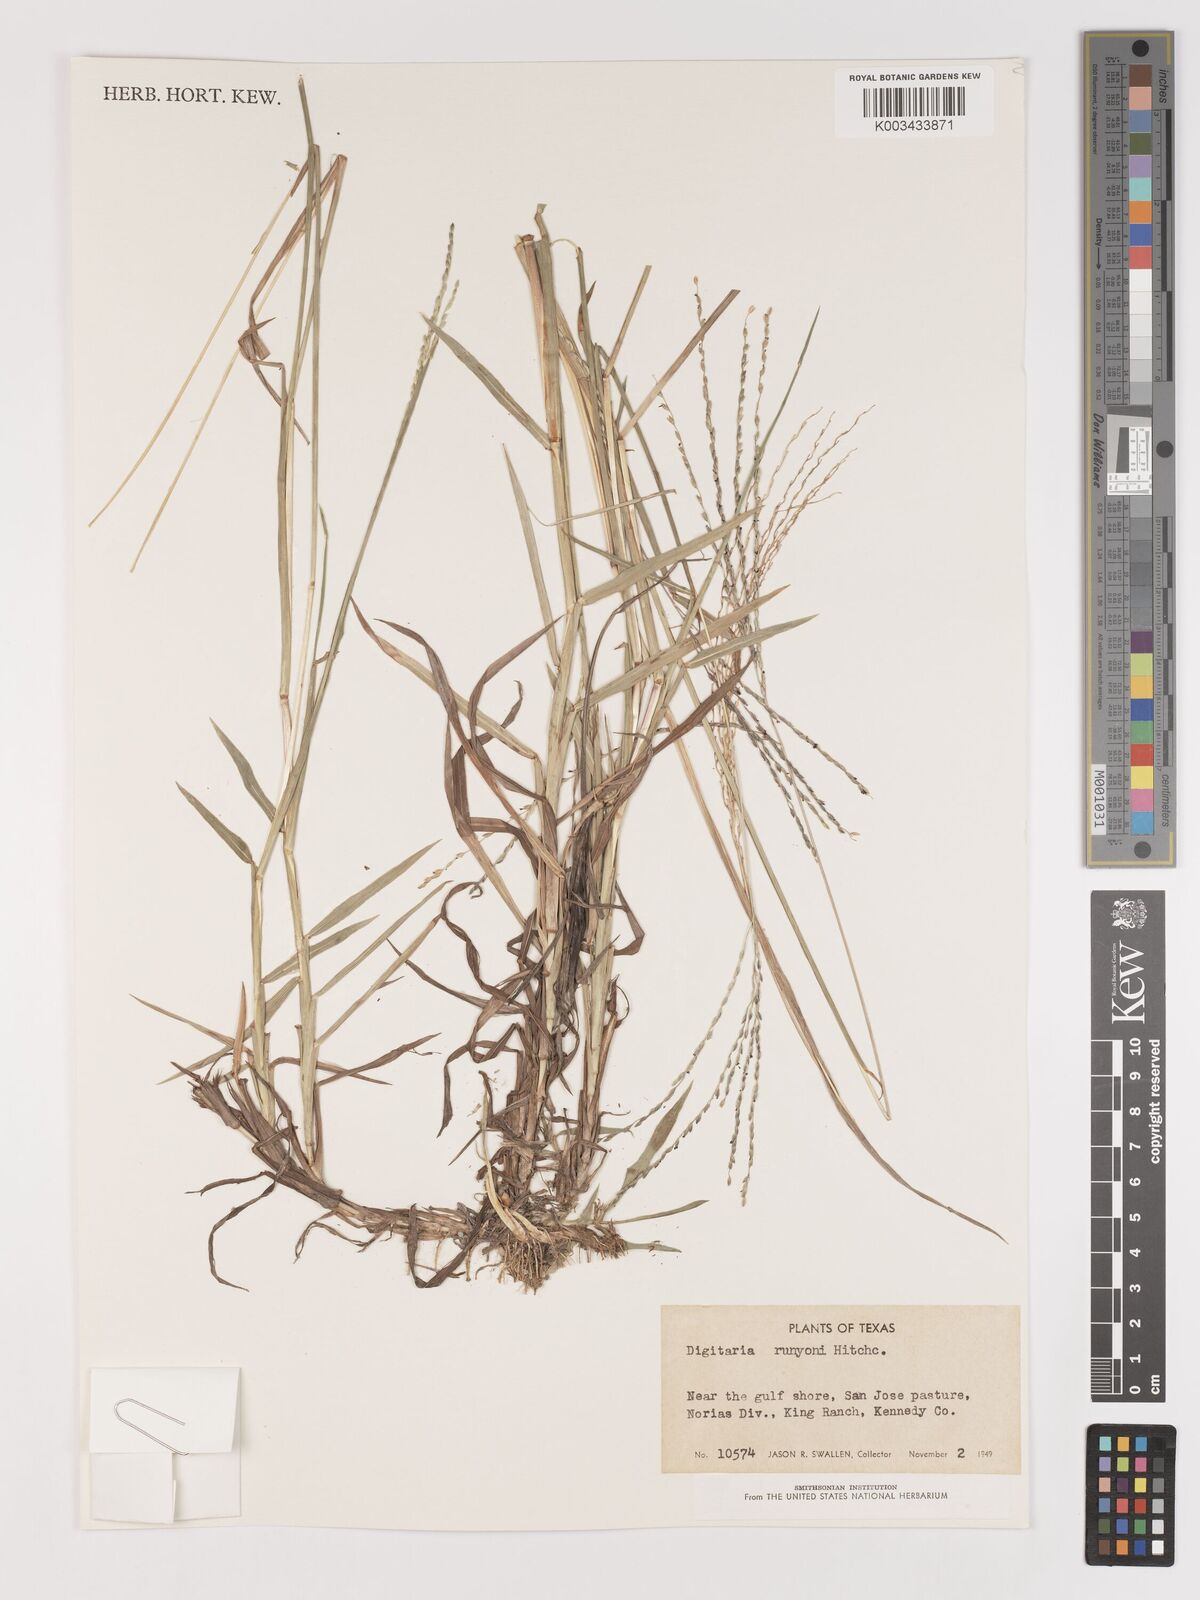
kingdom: Plantae
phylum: Tracheophyta
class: Liliopsida
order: Poales
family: Poaceae
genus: Digitaria
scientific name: Digitaria texana
